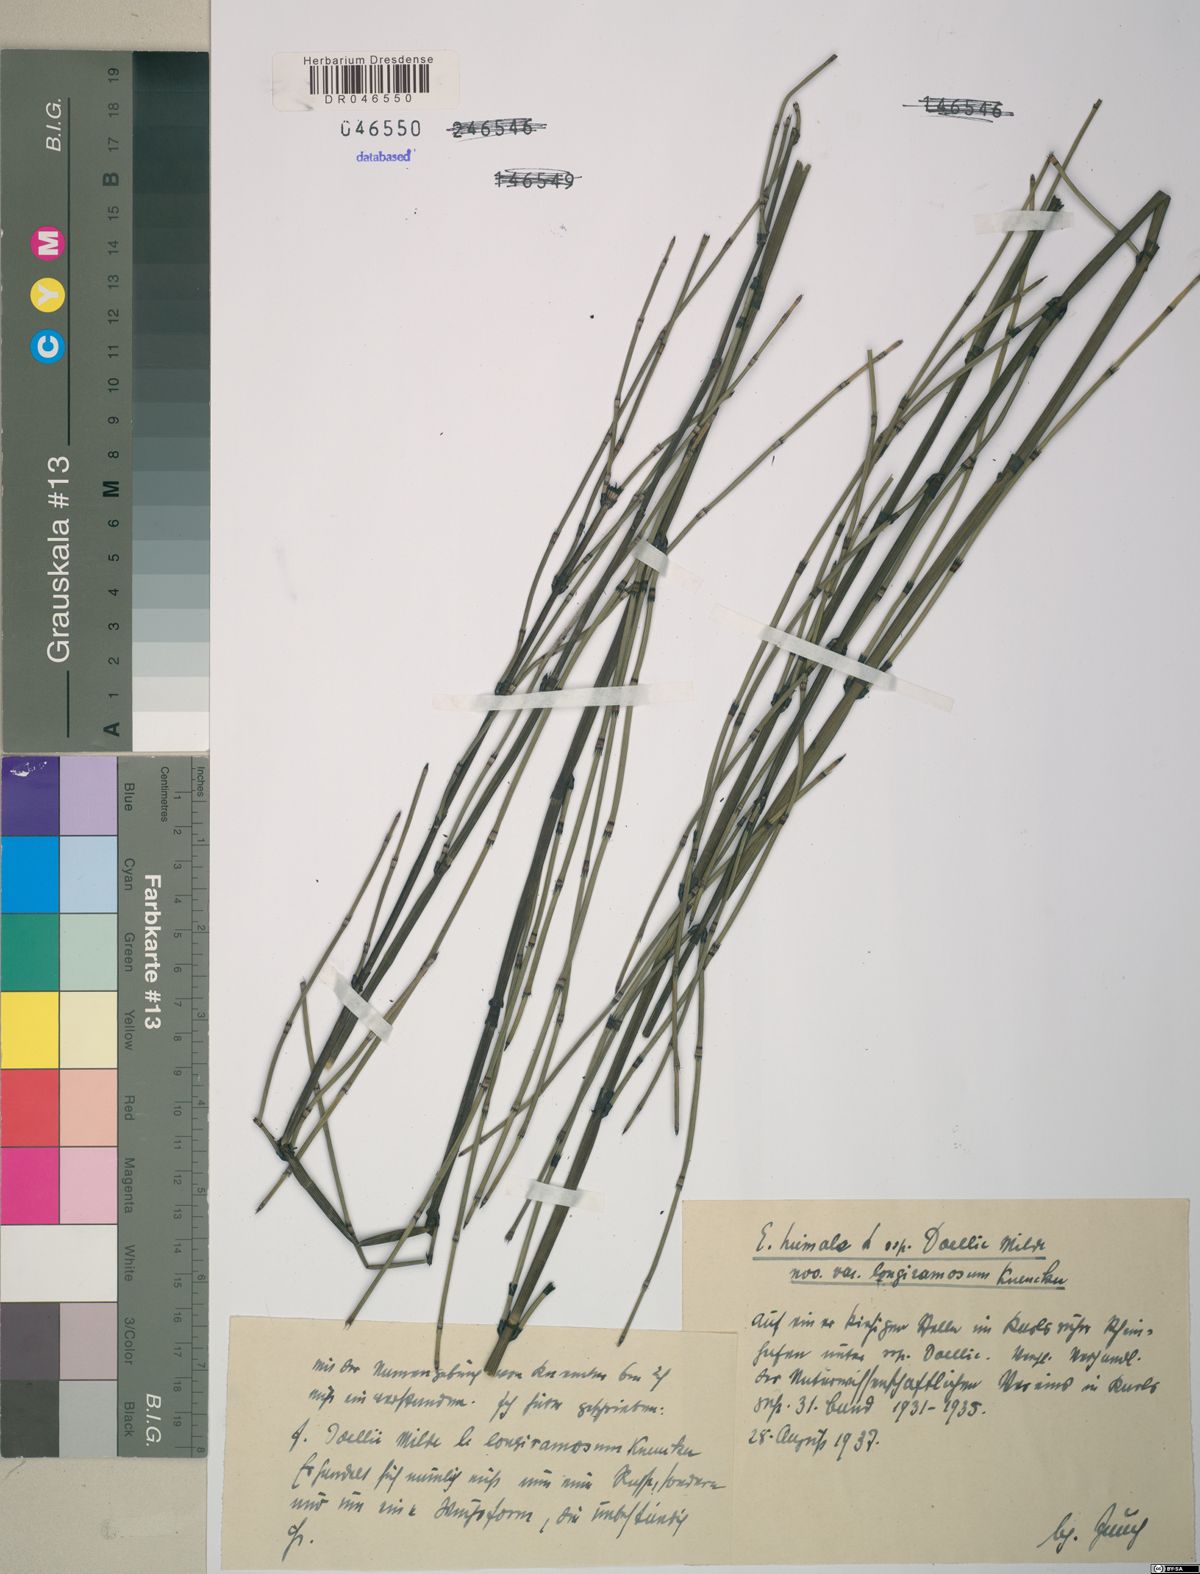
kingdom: Plantae
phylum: Tracheophyta
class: Polypodiopsida
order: Equisetales
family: Equisetaceae
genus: Equisetum
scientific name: Equisetum trachyodon
